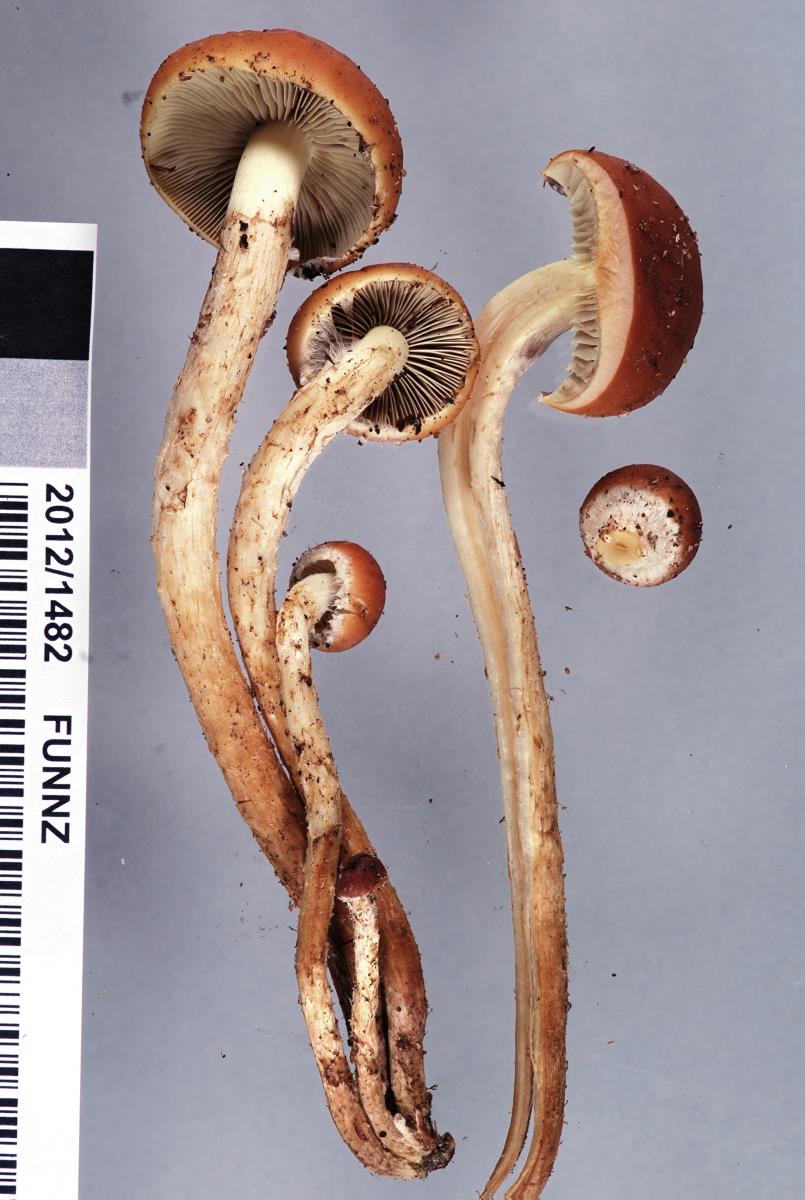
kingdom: Fungi
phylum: Basidiomycota
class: Agaricomycetes
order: Agaricales
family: Strophariaceae
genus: Hypholoma
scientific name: Hypholoma australianum
